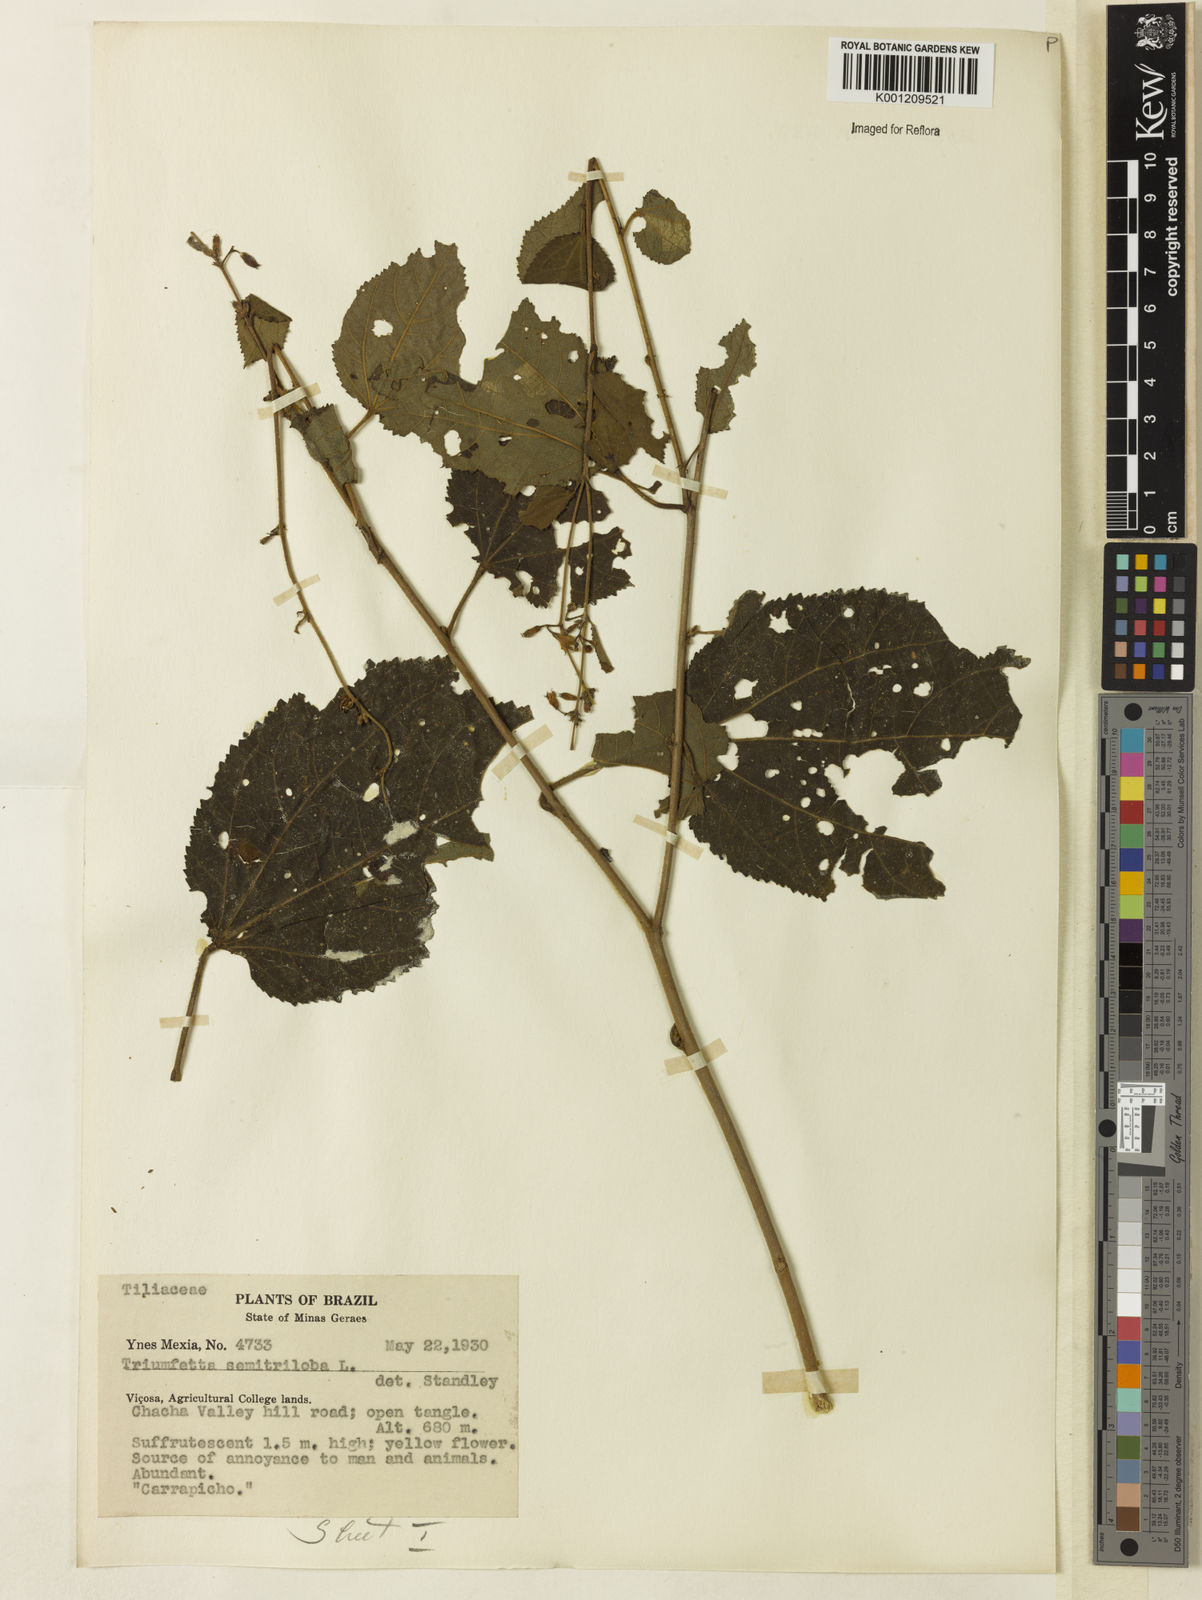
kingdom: Plantae
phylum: Tracheophyta
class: Magnoliopsida
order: Malvales
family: Malvaceae
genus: Triumfetta
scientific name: Triumfetta semitriloba
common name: Sacramento burbark
